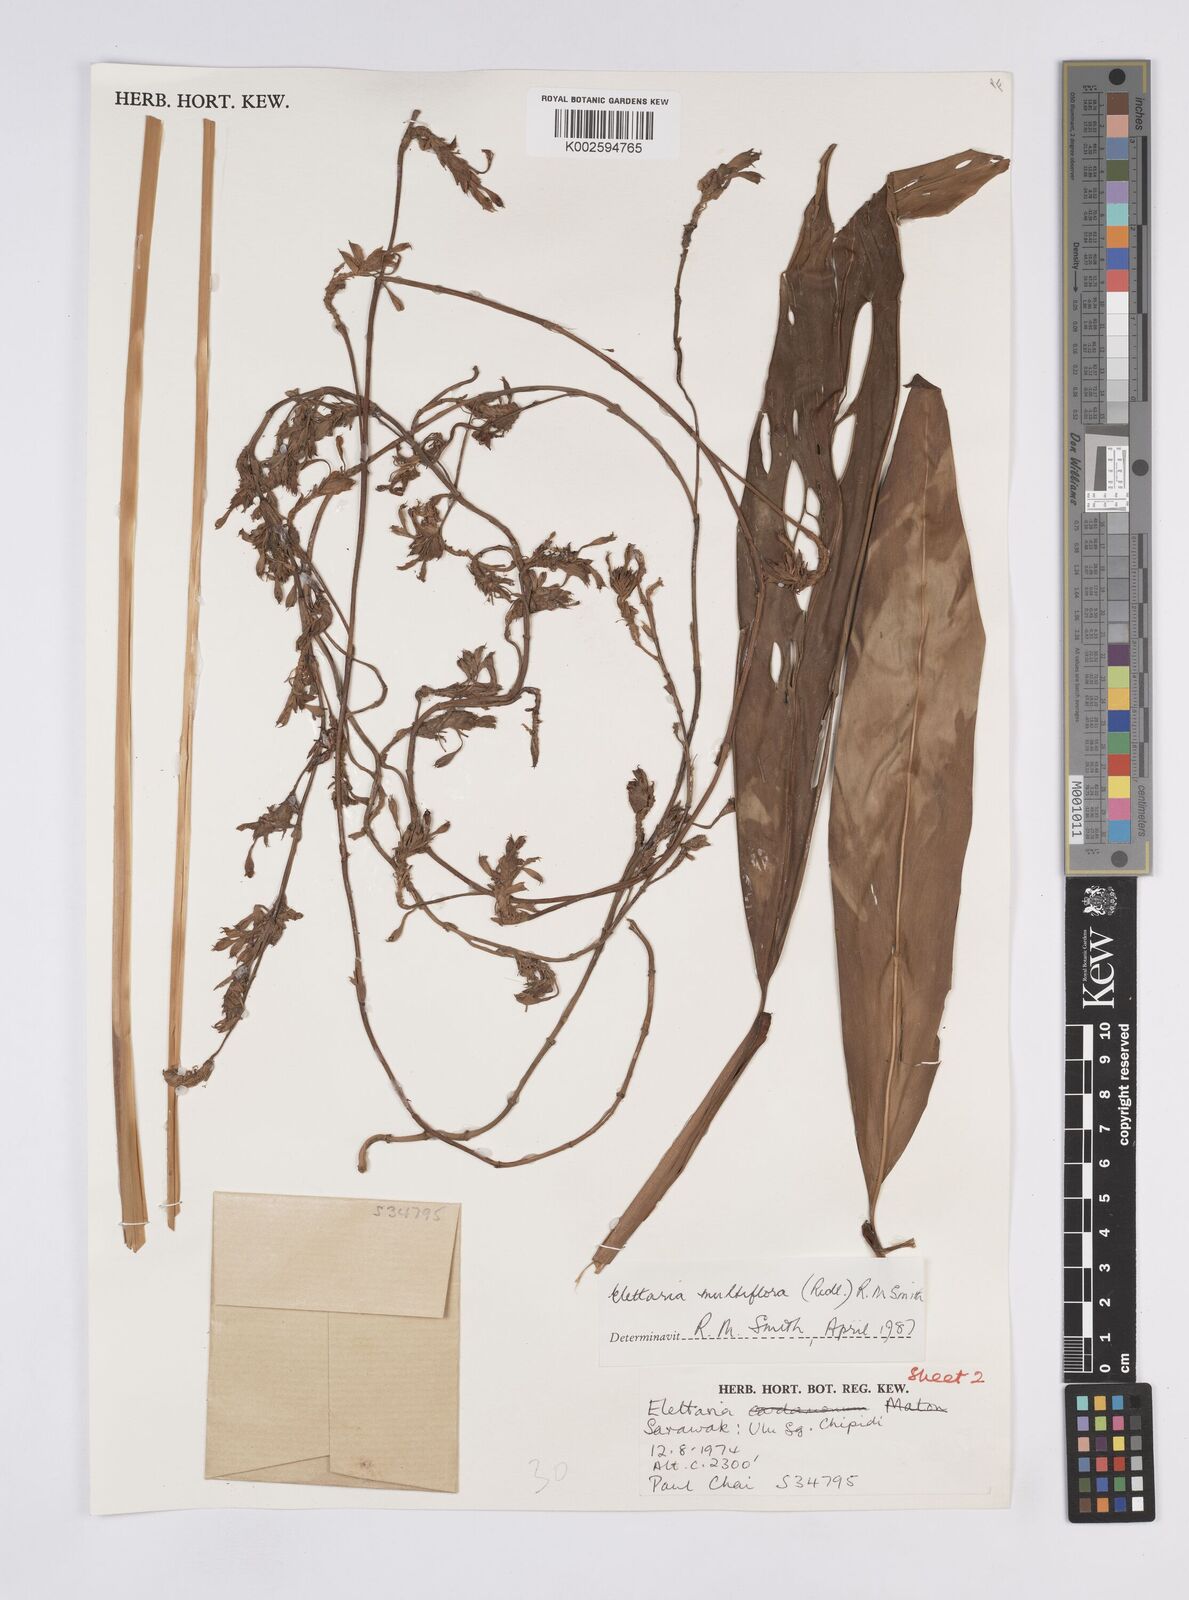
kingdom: Plantae
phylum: Tracheophyta
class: Liliopsida
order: Zingiberales
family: Zingiberaceae
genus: Elettaria
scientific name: Elettaria
